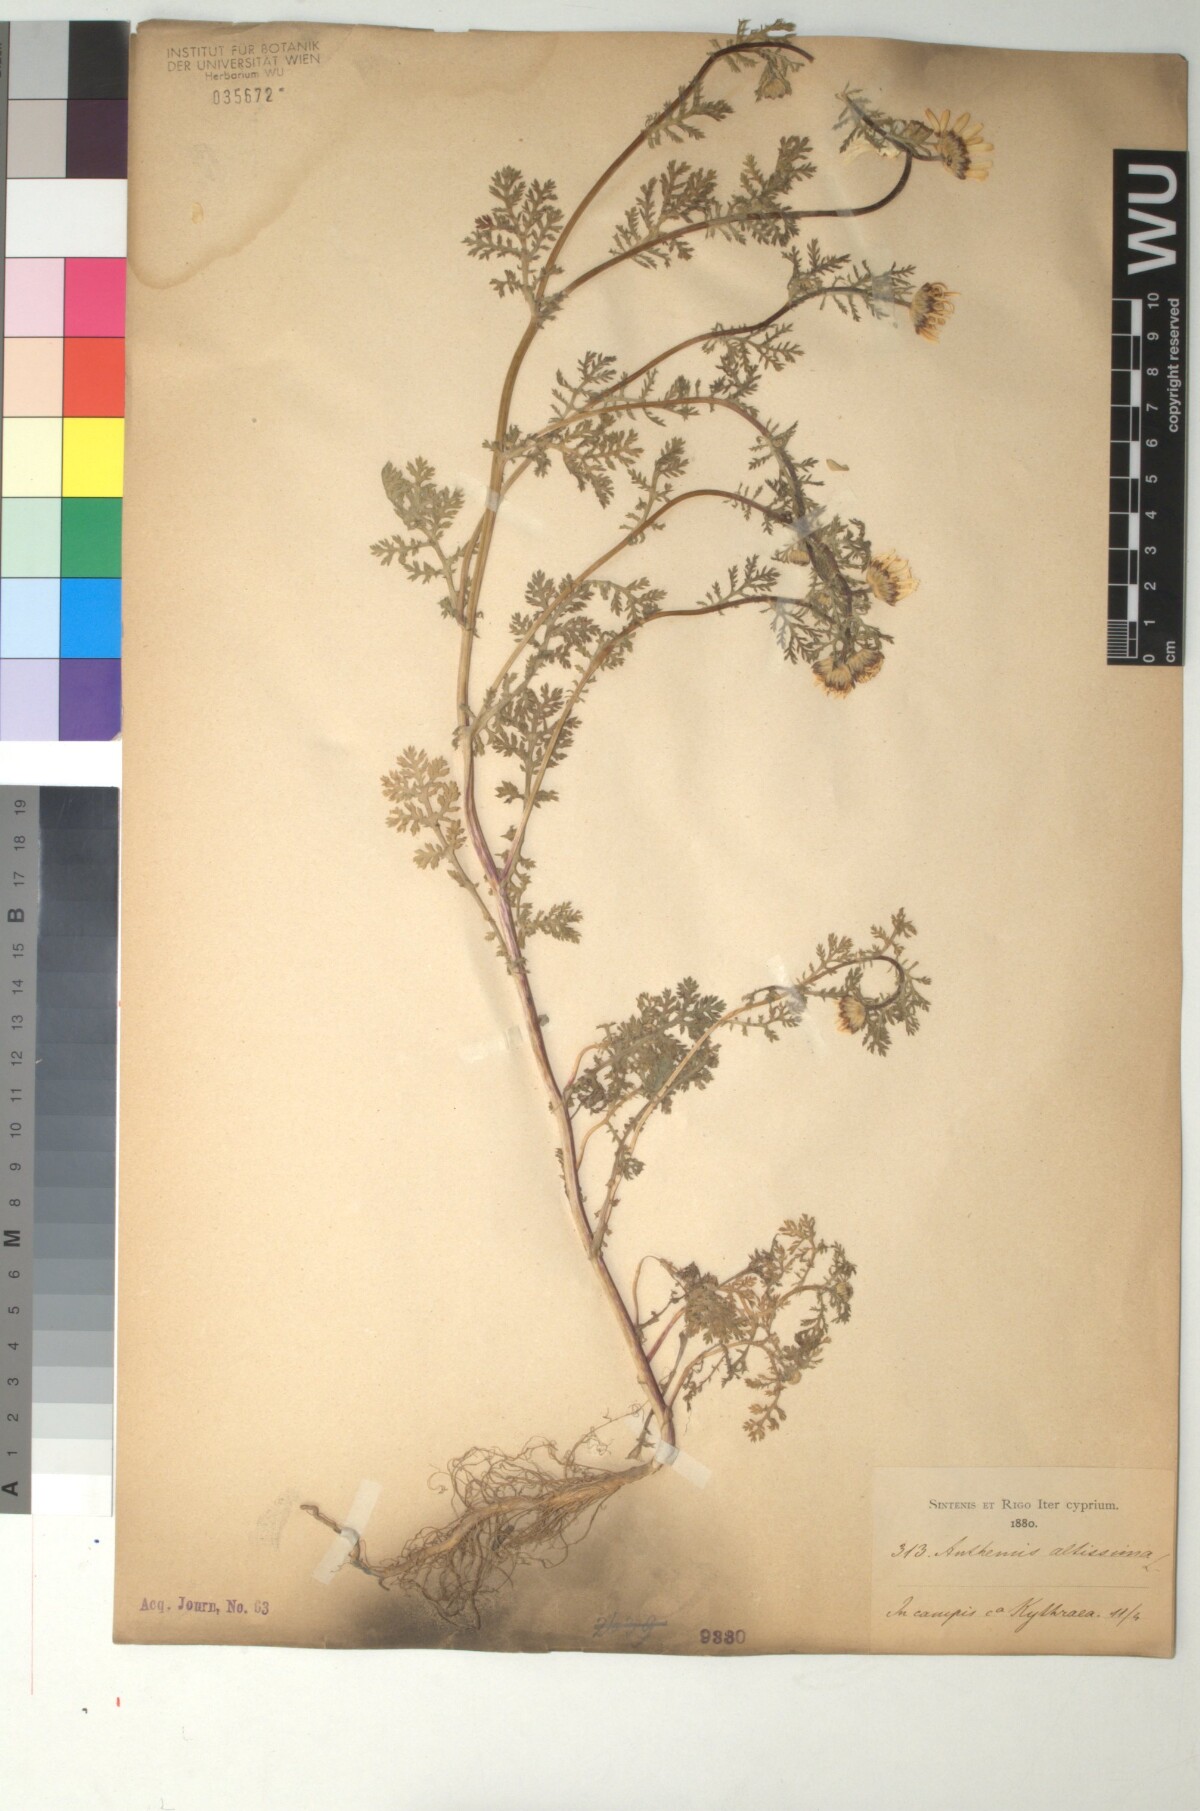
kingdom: Plantae
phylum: Tracheophyta
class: Magnoliopsida
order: Asterales
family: Asteraceae
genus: Cota
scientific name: Cota altissima
